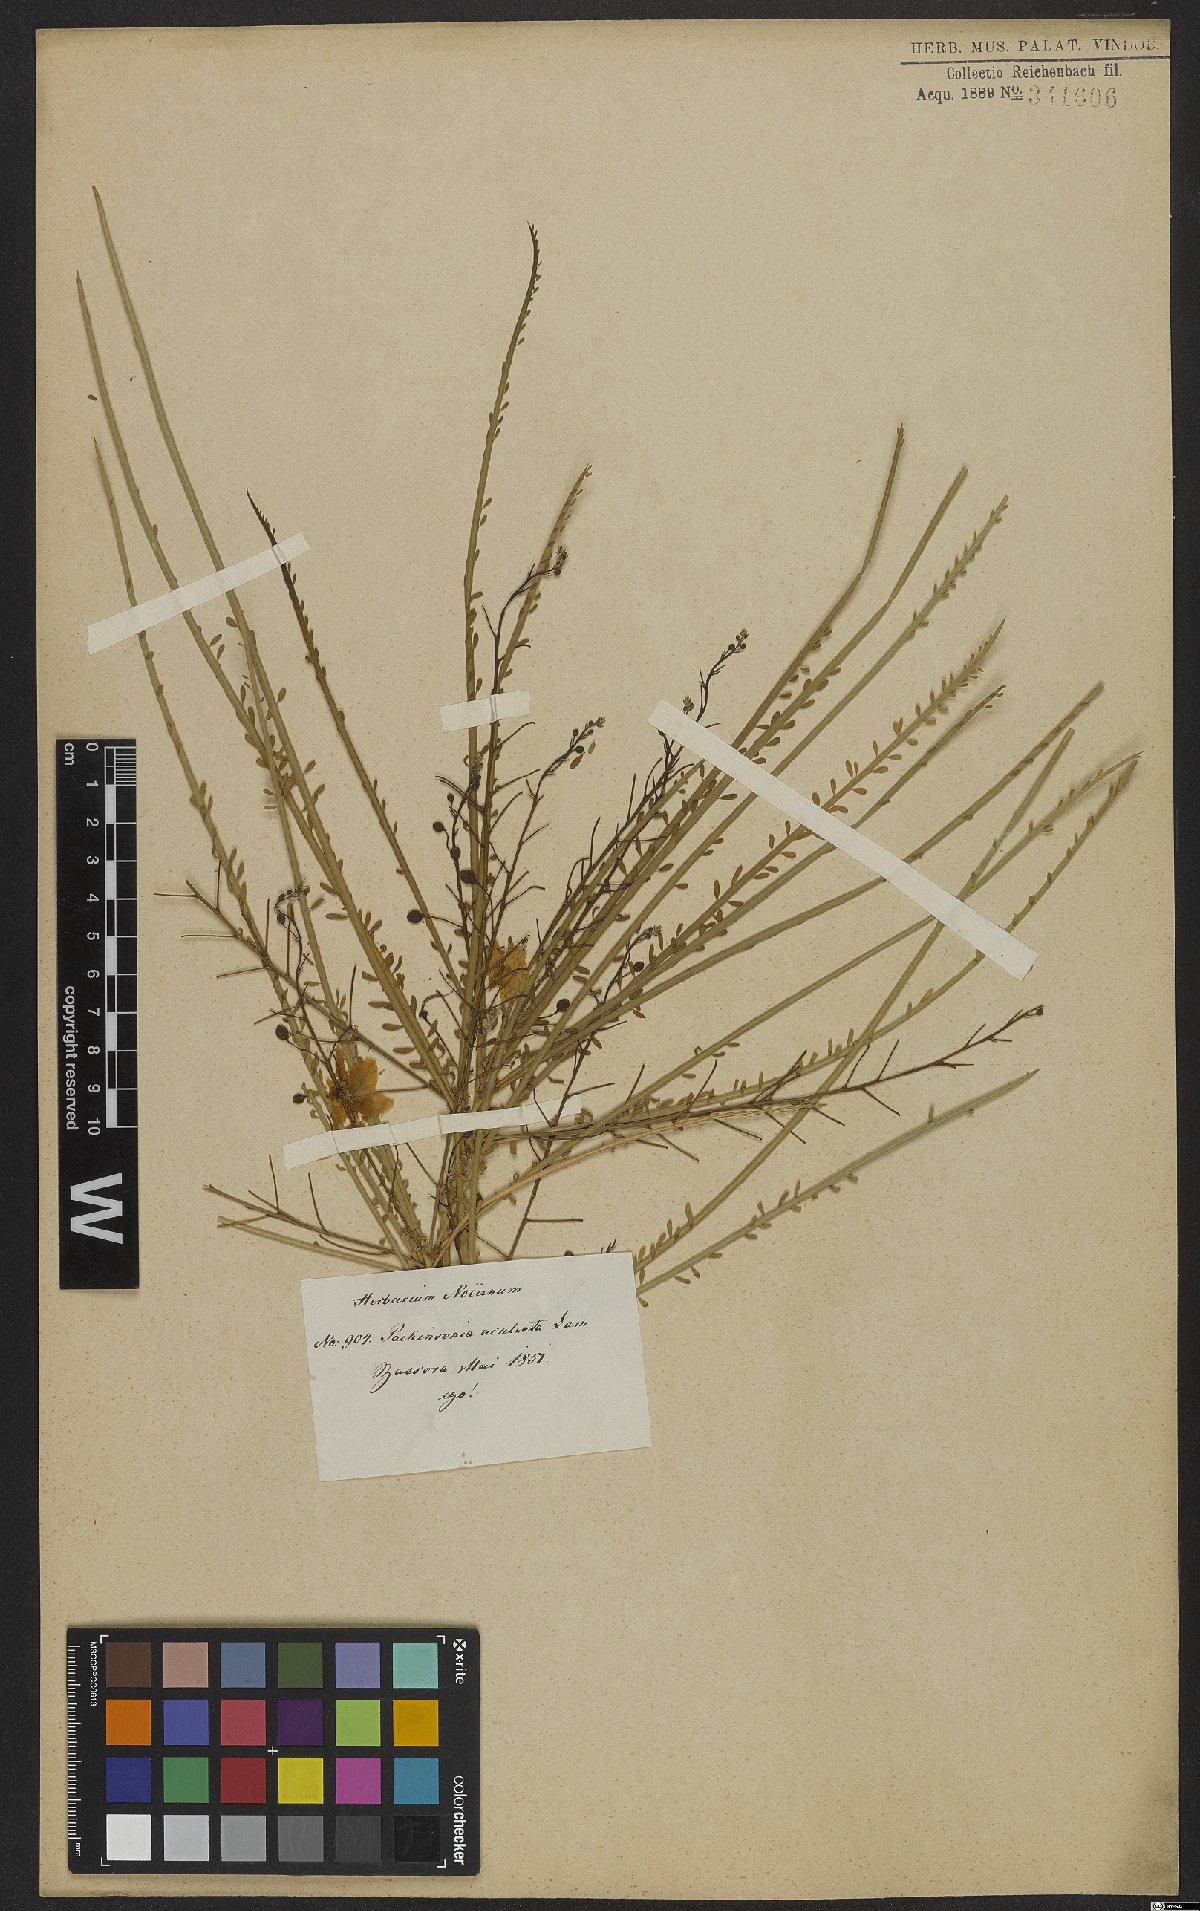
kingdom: Plantae
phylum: Tracheophyta
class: Magnoliopsida
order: Fabales
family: Fabaceae
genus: Parkinsonia
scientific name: Parkinsonia aculeata
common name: Jerusalem thorn
